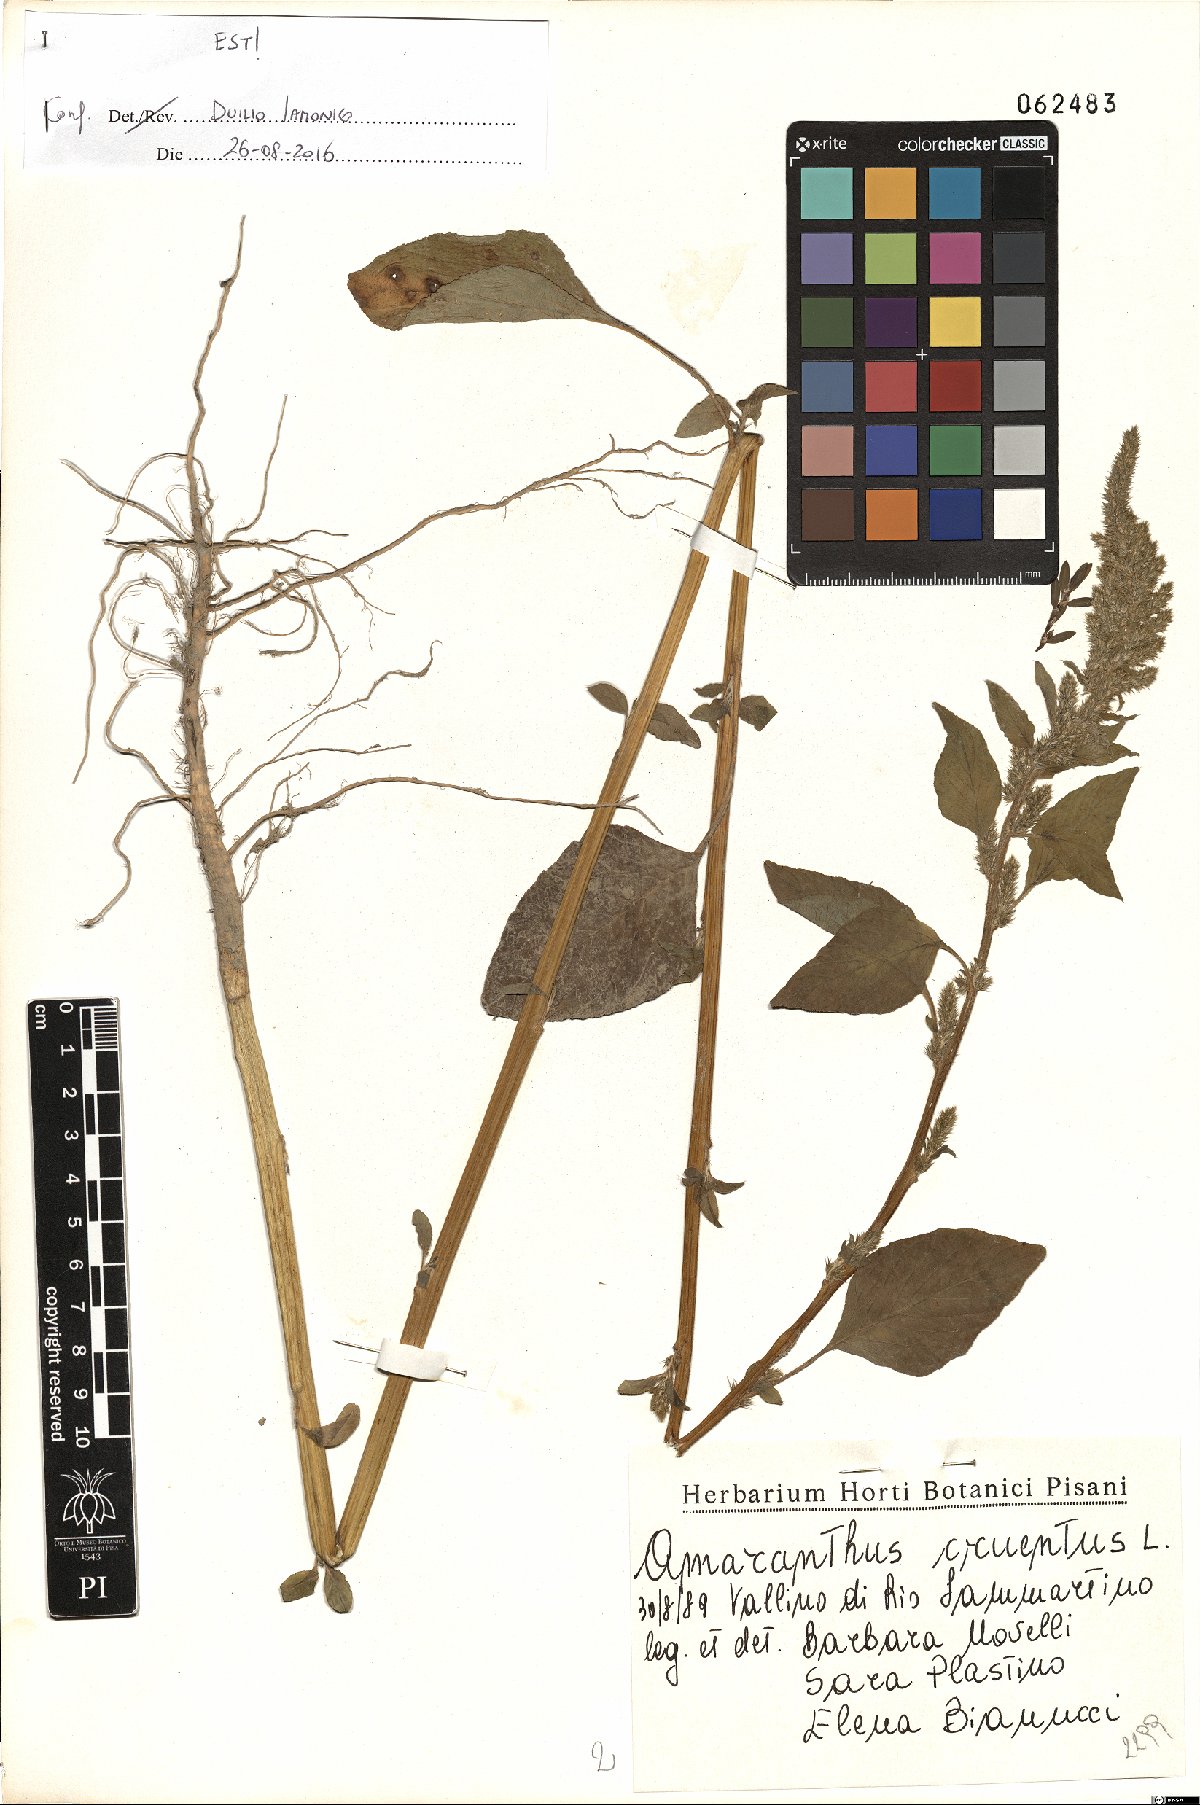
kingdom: Plantae
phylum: Tracheophyta
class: Magnoliopsida
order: Caryophyllales
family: Amaranthaceae
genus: Amaranthus
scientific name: Amaranthus cruentus
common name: Purple amaranth
